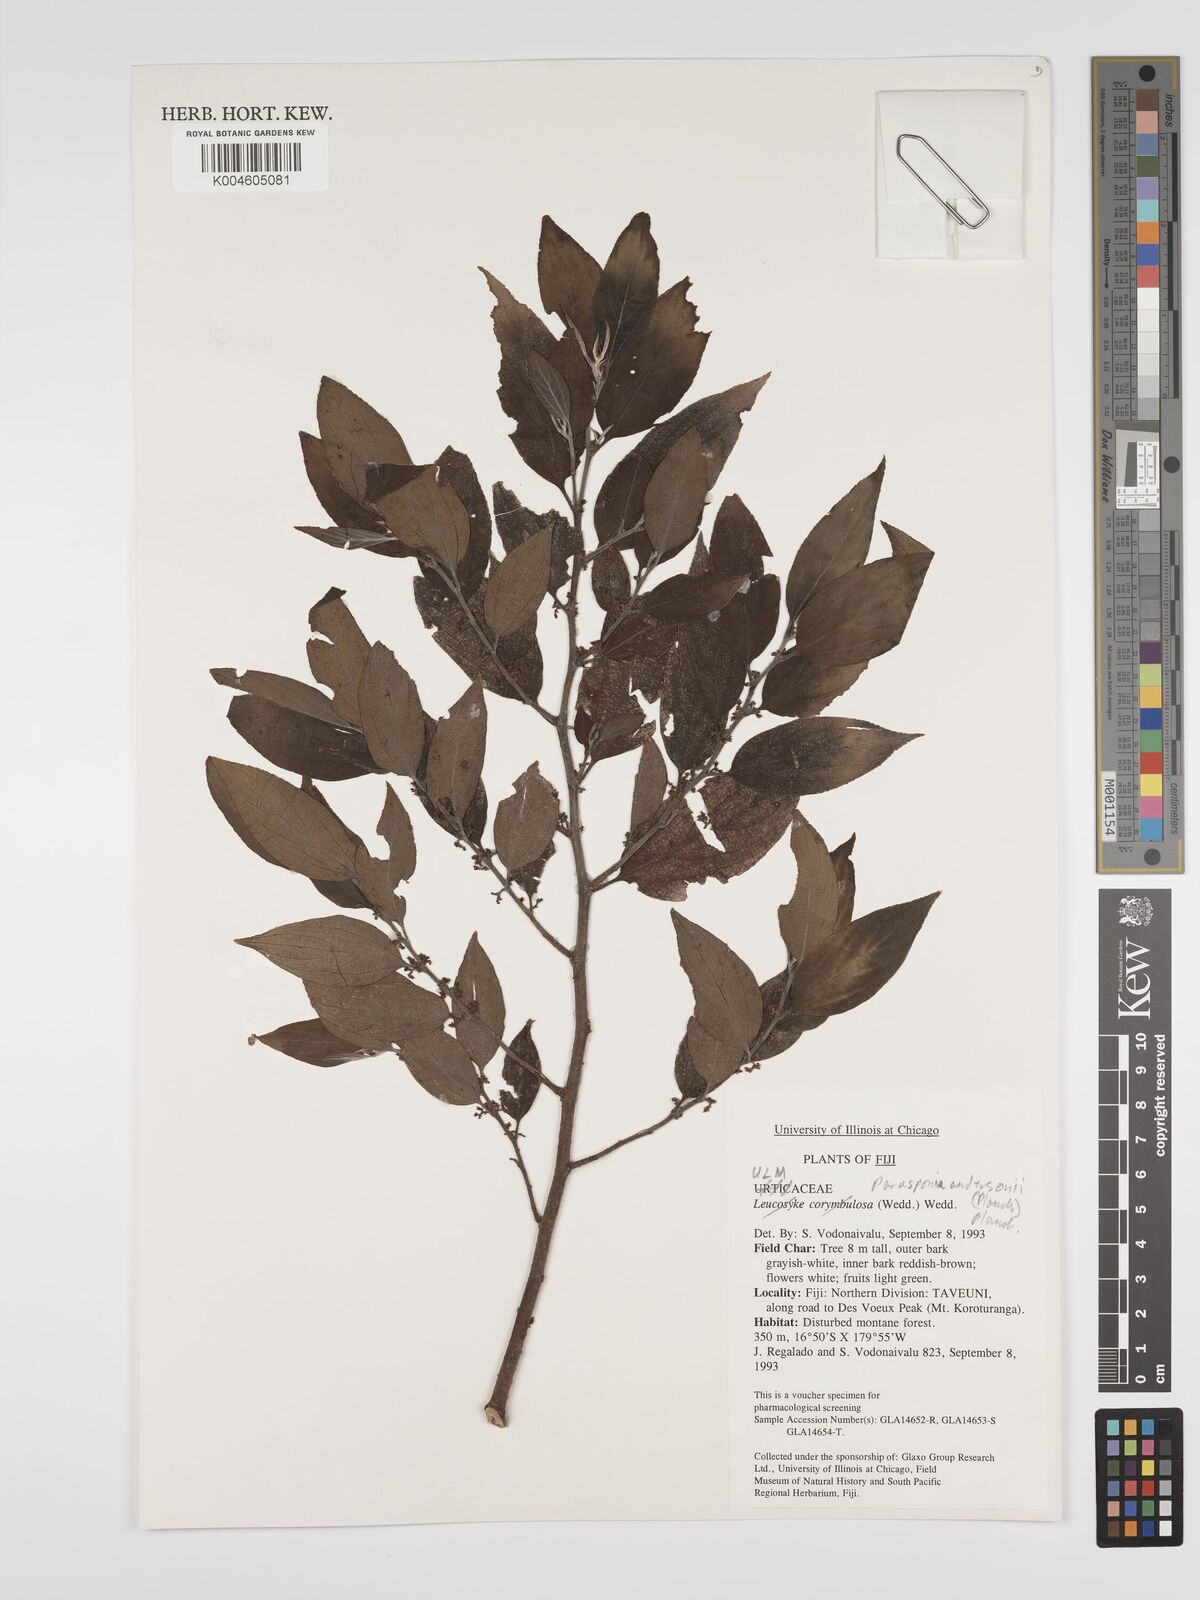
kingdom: Plantae
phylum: Tracheophyta
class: Magnoliopsida
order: Rosales
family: Cannabaceae
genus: Trema
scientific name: Trema andersonii
